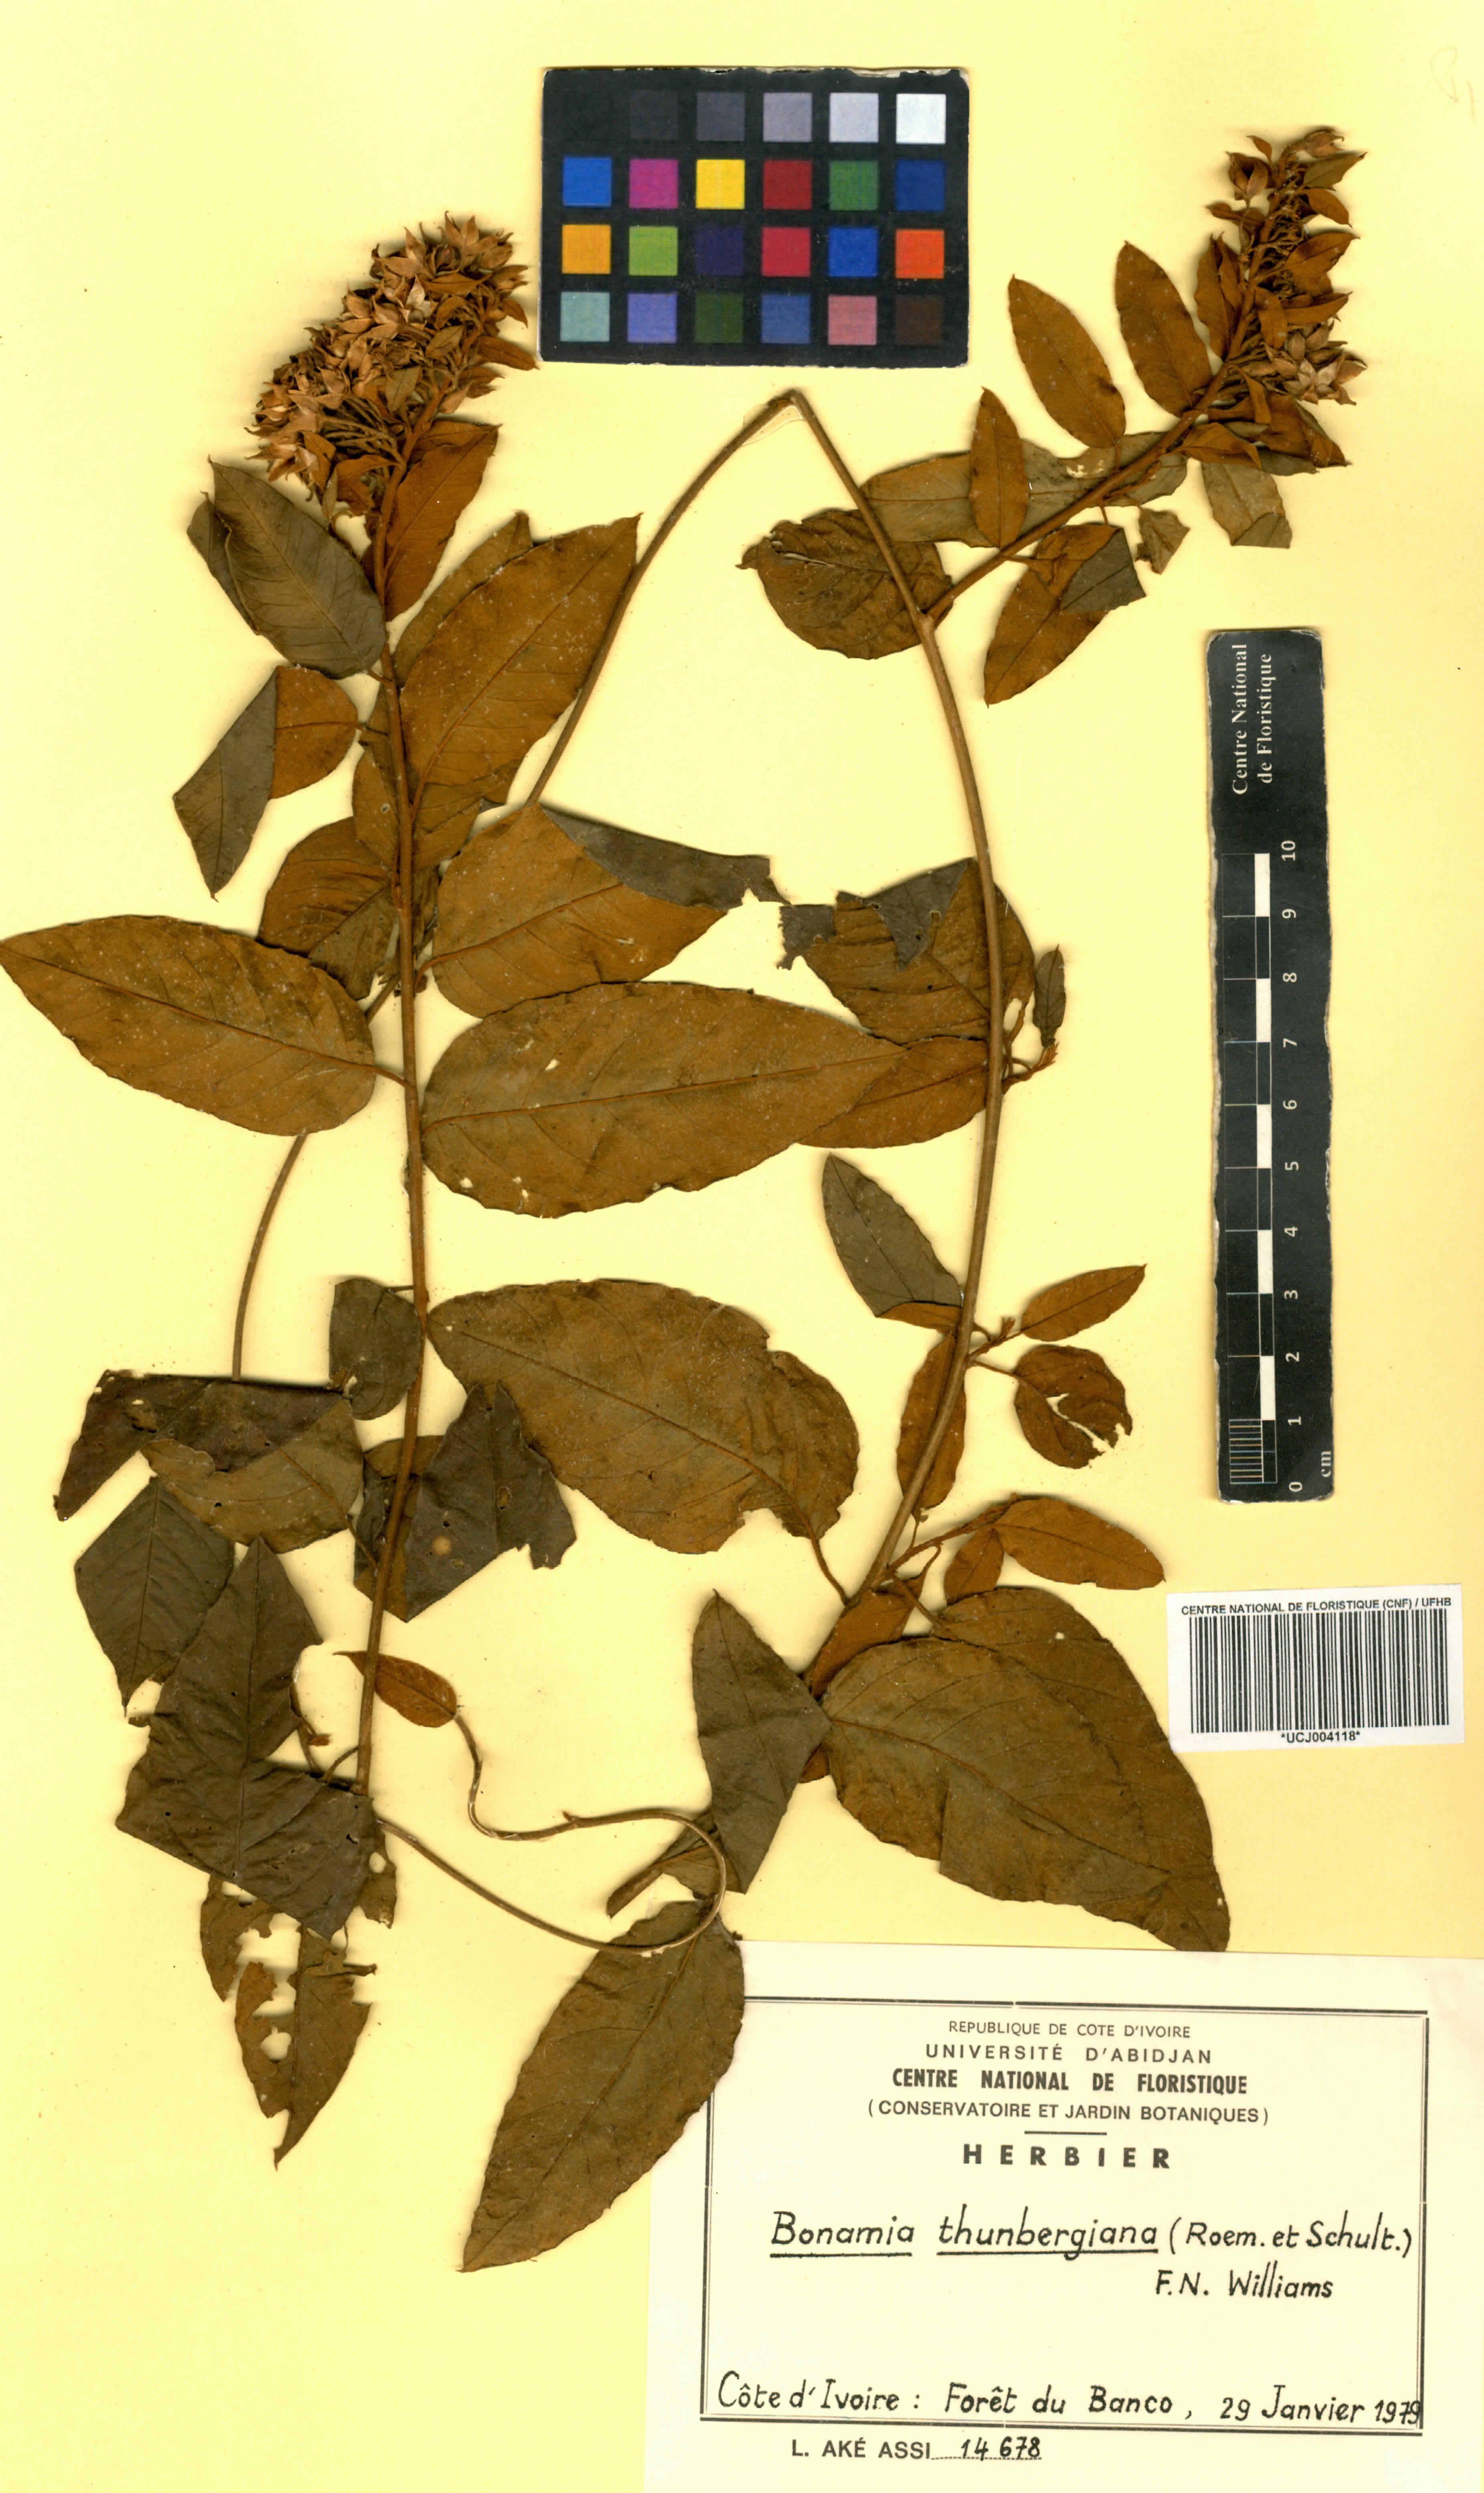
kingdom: Plantae
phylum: Tracheophyta
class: Magnoliopsida
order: Solanales
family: Convolvulaceae
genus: Bonamia
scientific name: Bonamia thunbergiana
